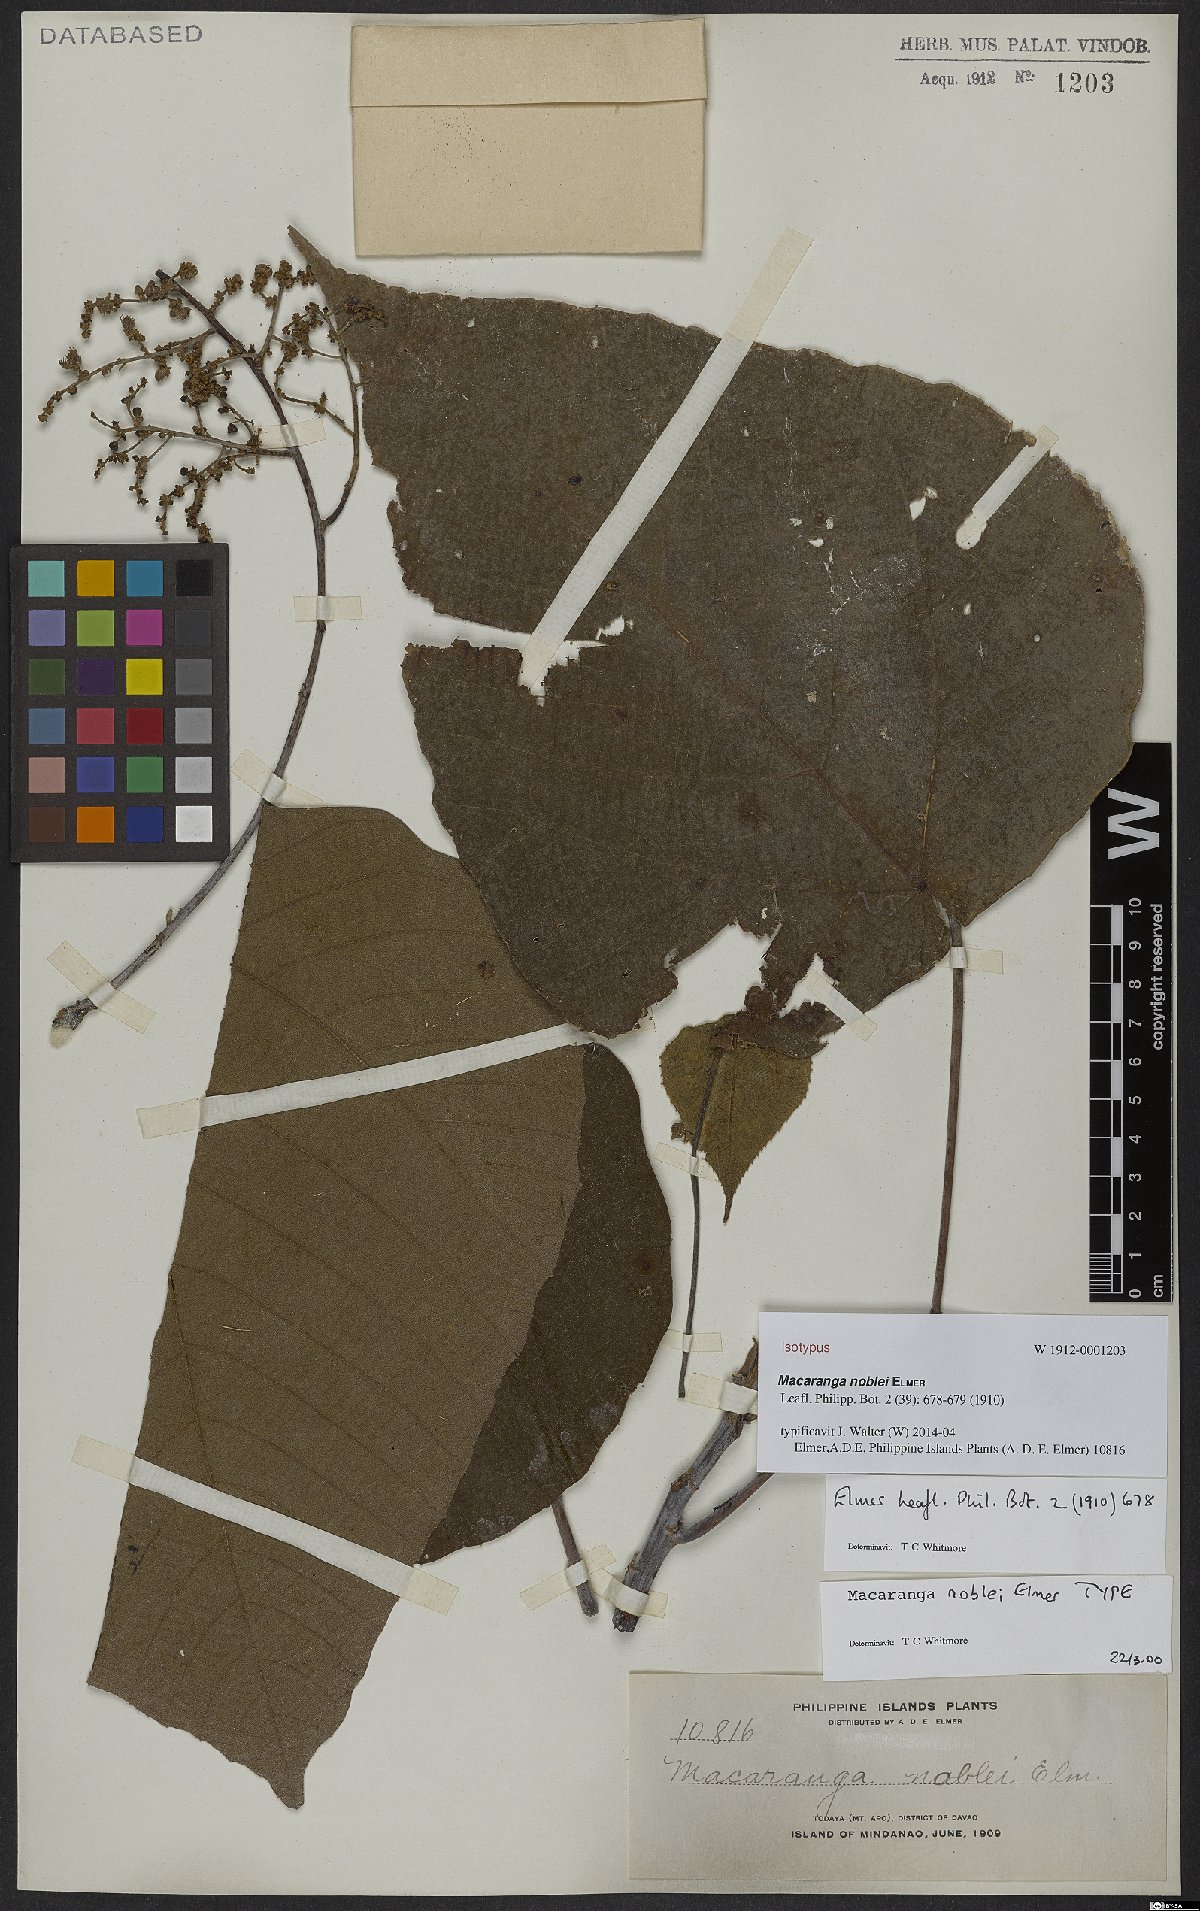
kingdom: Plantae
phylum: Tracheophyta
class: Magnoliopsida
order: Malpighiales
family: Euphorbiaceae
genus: Macaranga
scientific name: Macaranga noblei
